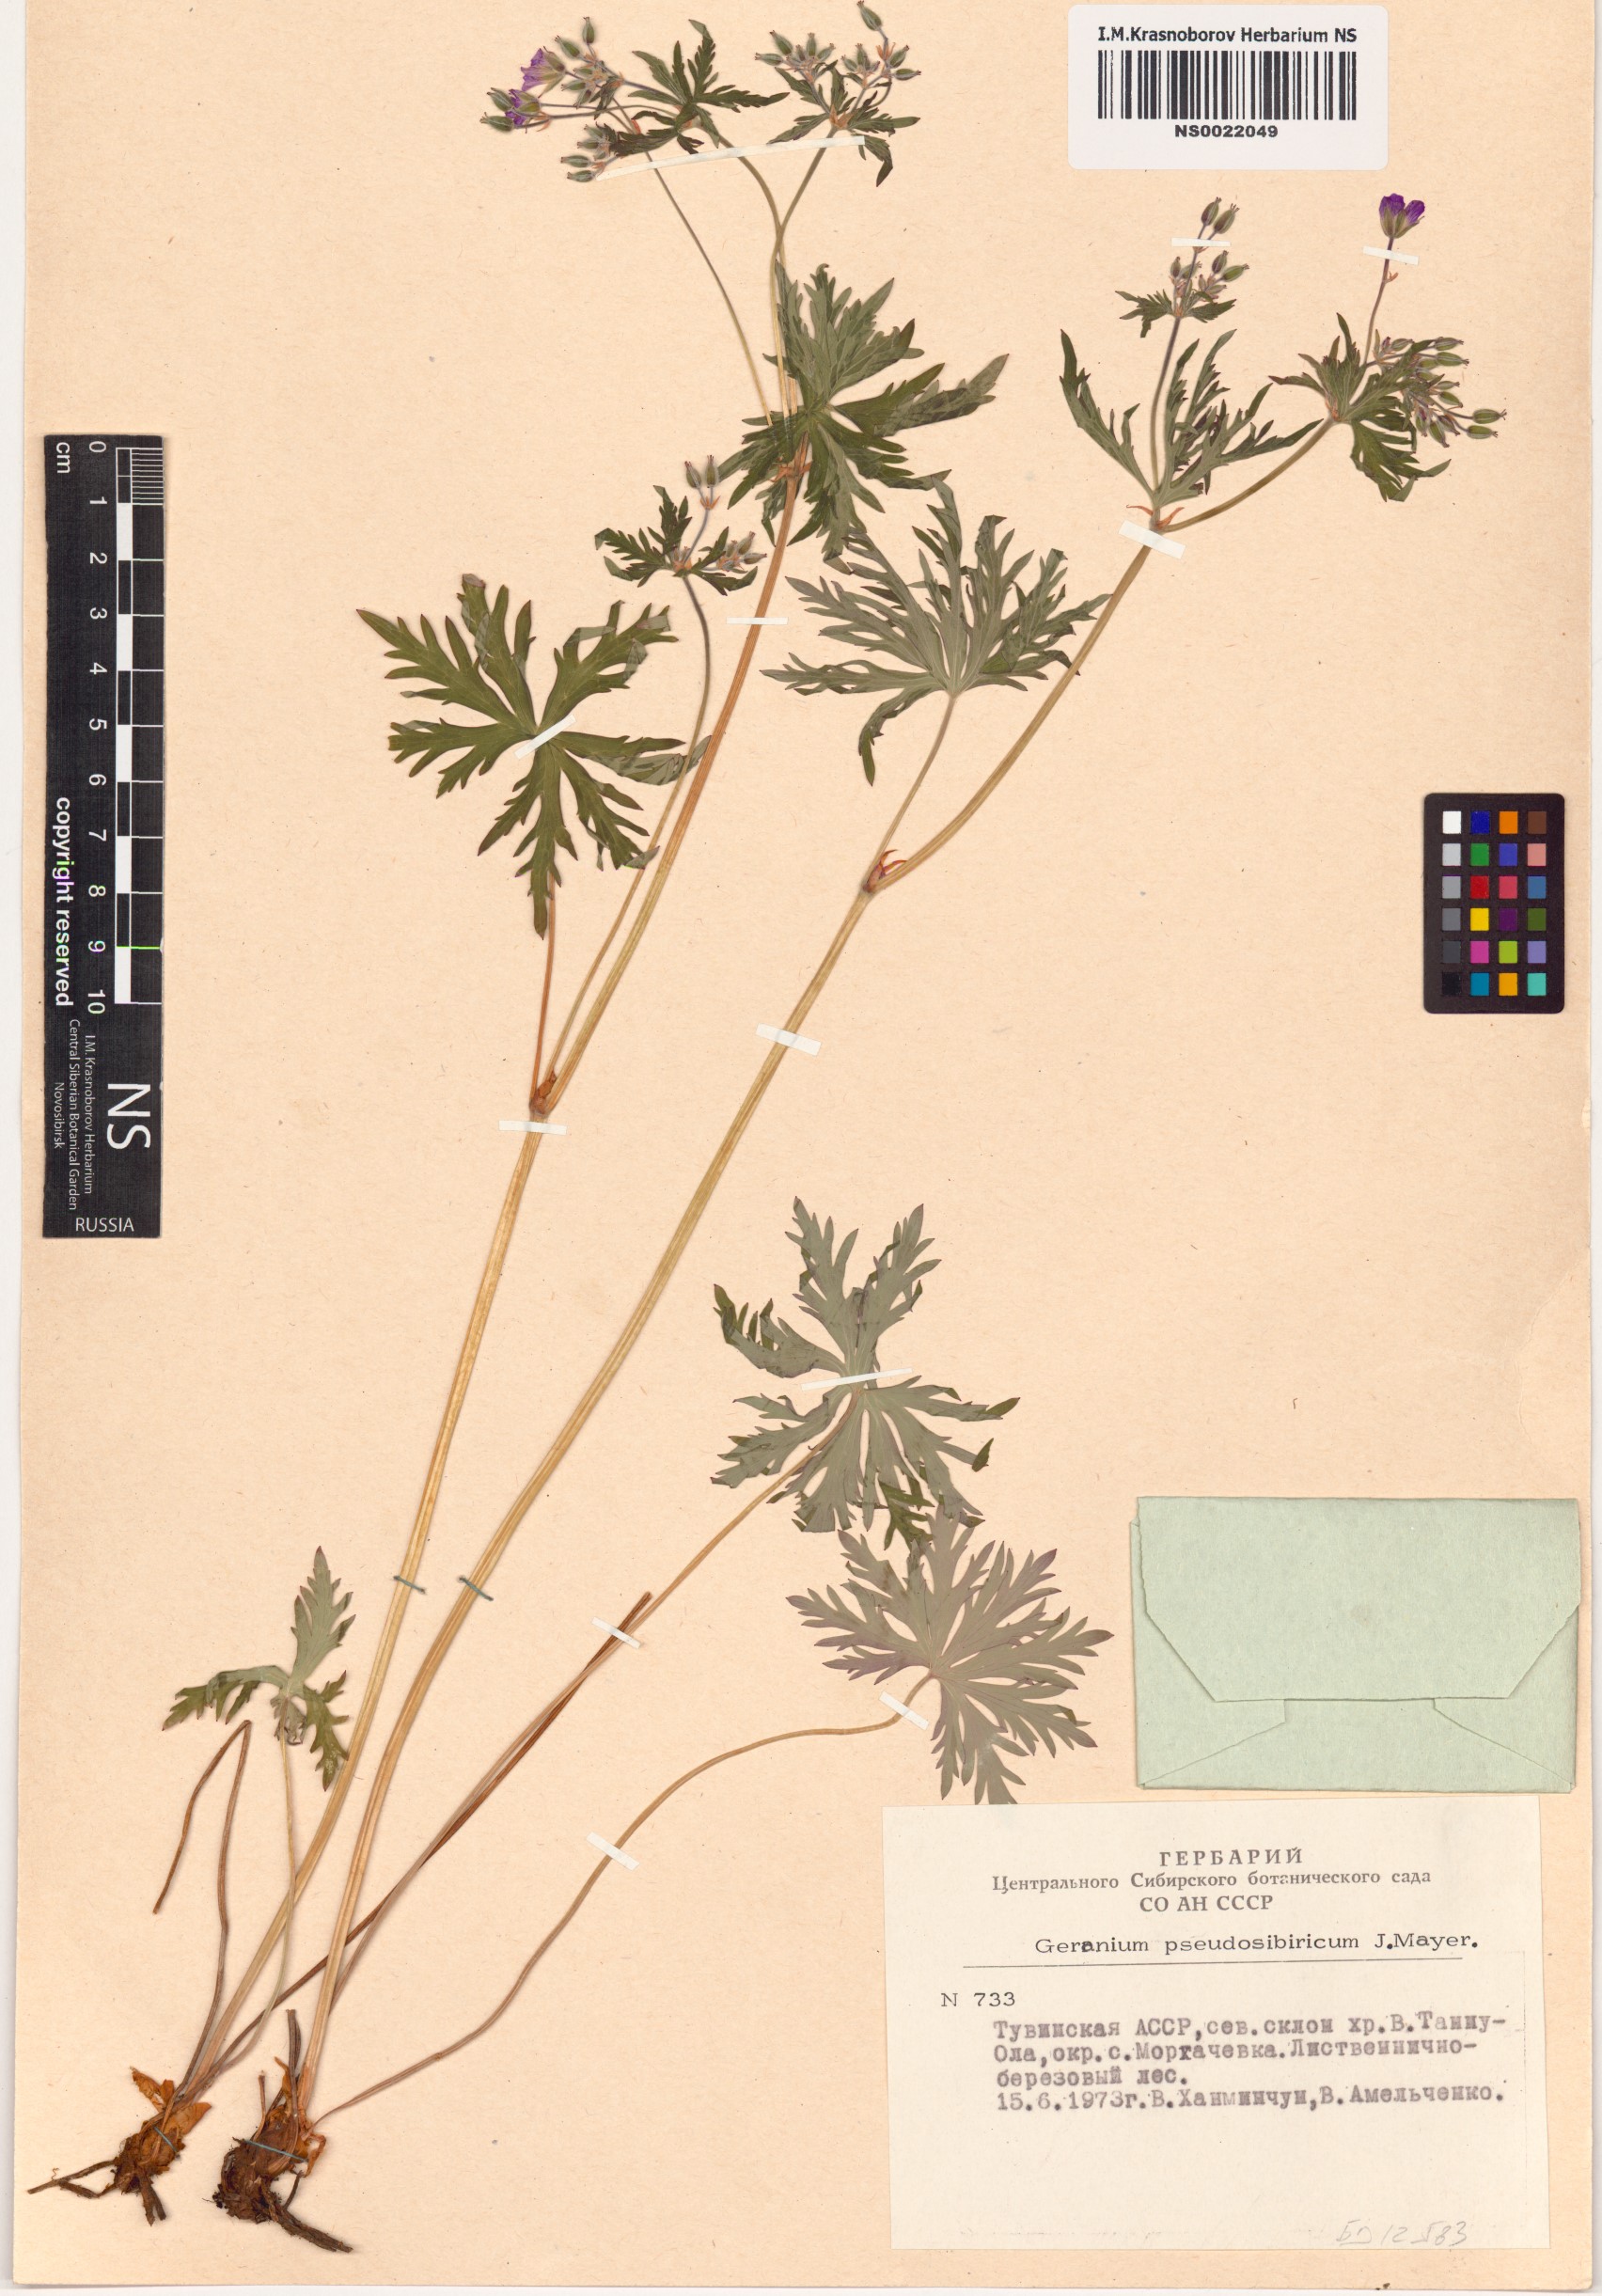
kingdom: Plantae
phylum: Tracheophyta
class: Magnoliopsida
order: Geraniales
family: Geraniaceae
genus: Geranium
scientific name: Geranium pseudosibiricum
